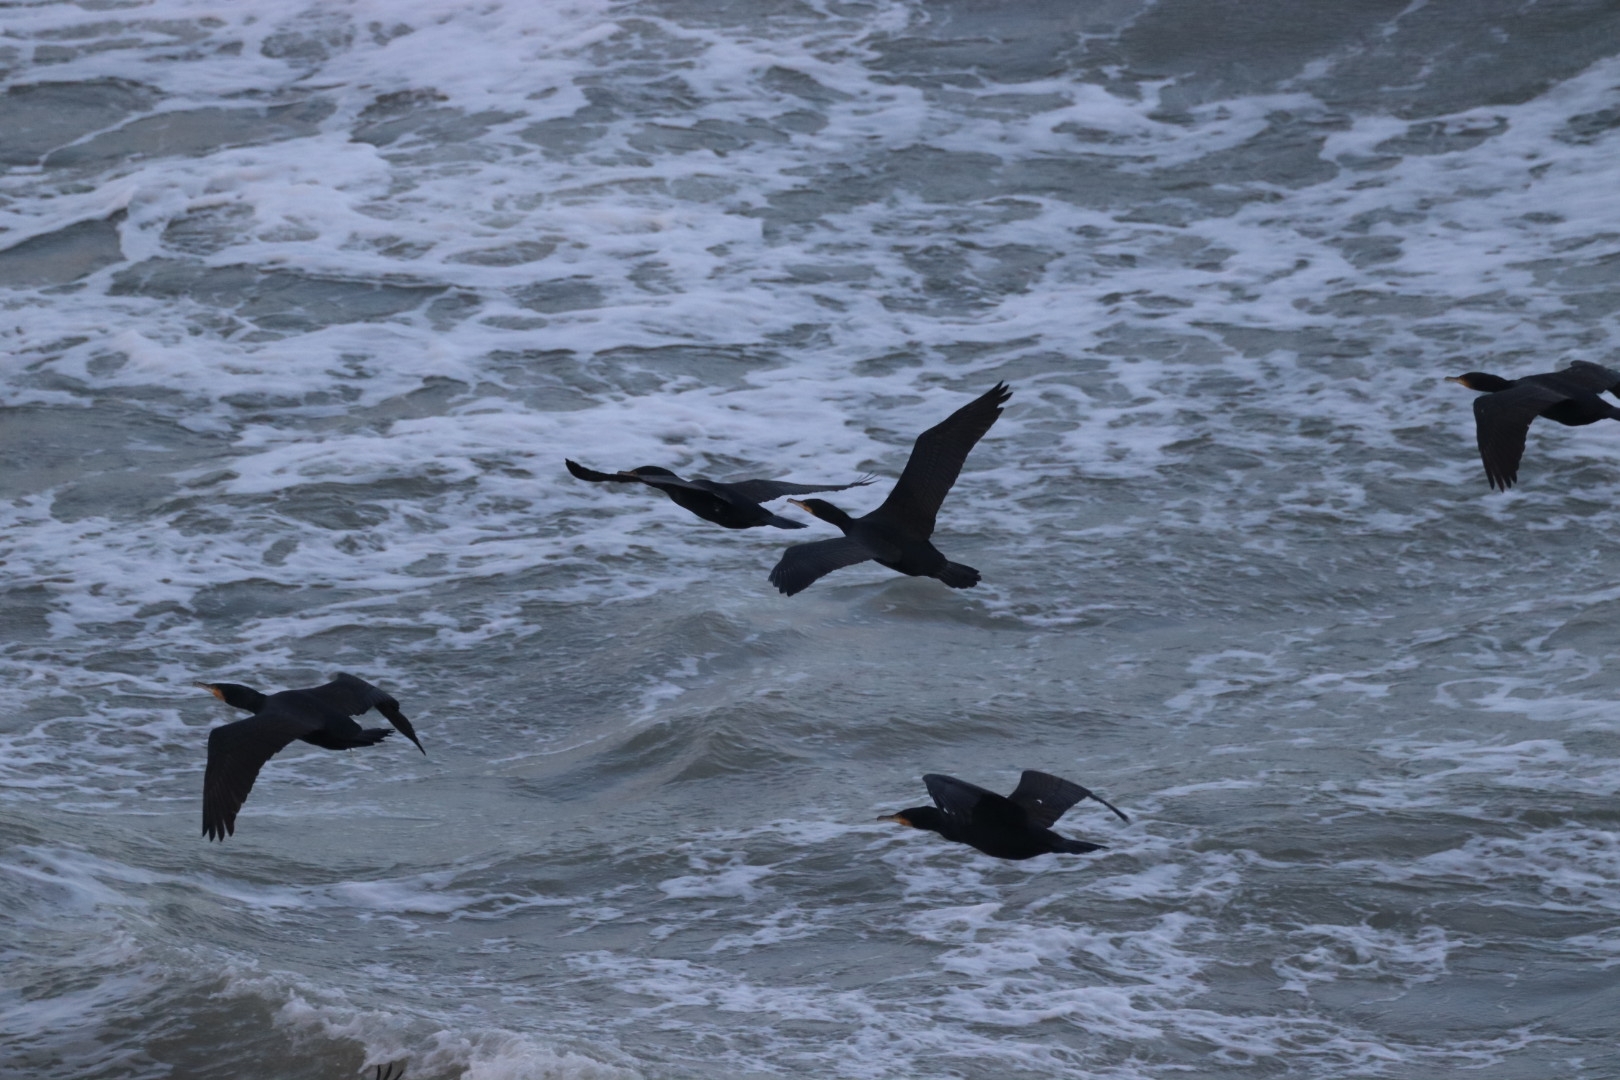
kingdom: Animalia
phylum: Chordata
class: Aves
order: Suliformes
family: Phalacrocoracidae
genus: Phalacrocorax
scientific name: Phalacrocorax carbo
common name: Skarv
